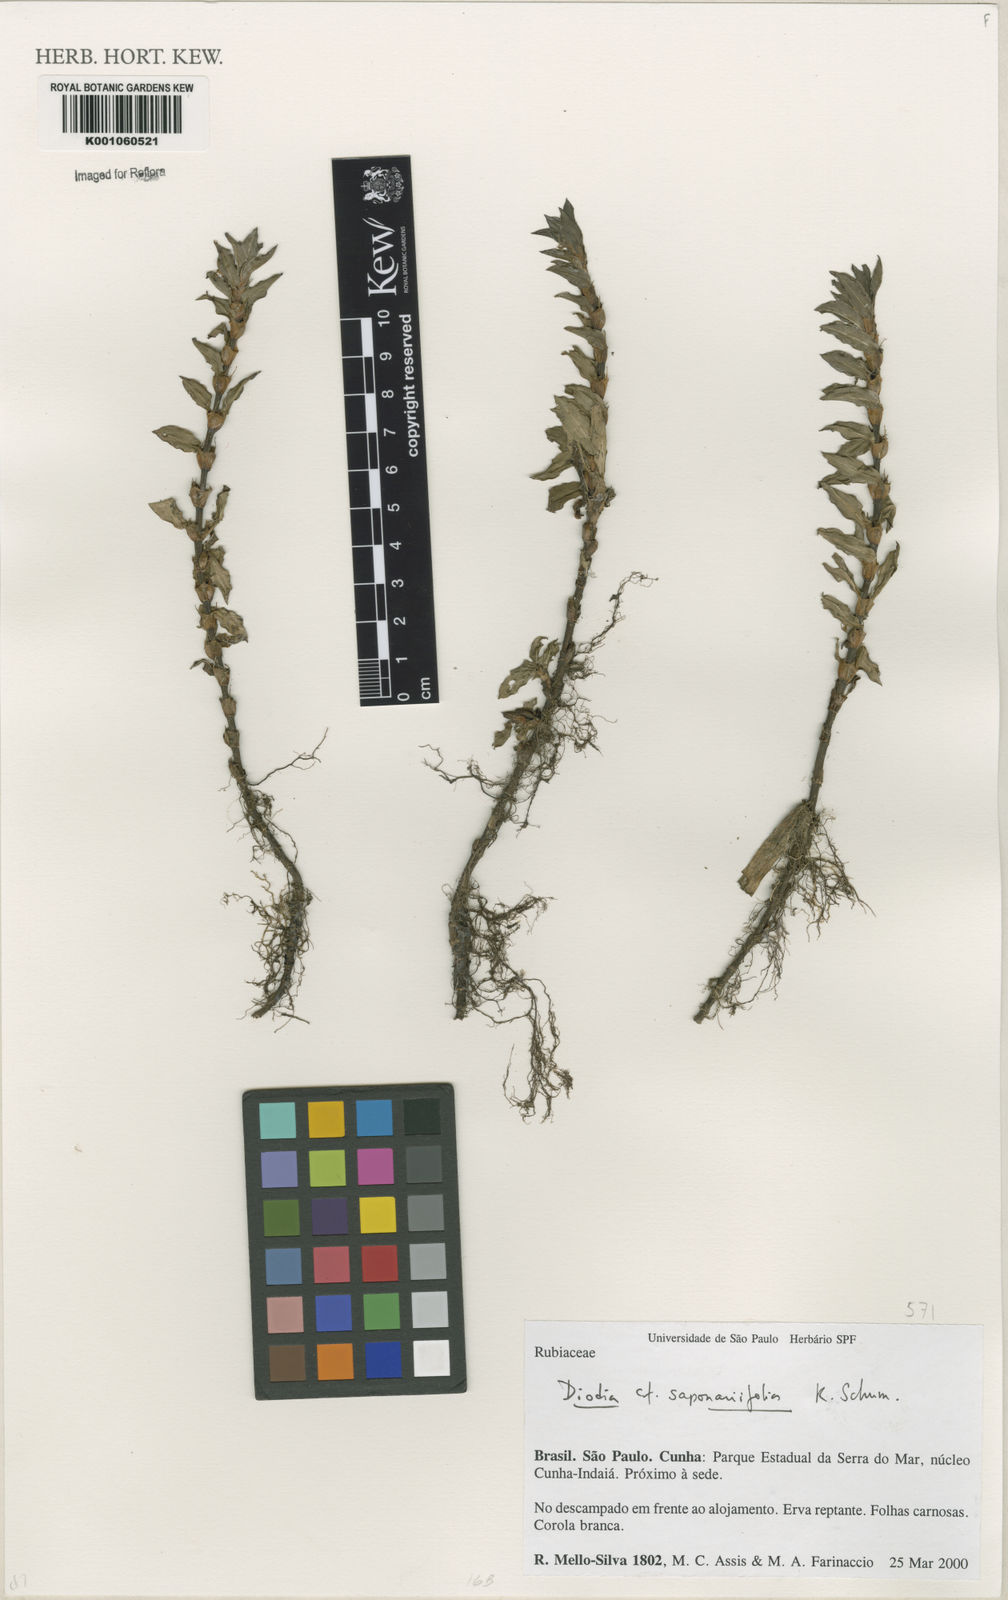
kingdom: Plantae
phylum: Tracheophyta
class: Magnoliopsida
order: Gentianales
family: Rubiaceae
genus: Diodia
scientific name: Diodia saponariifolia
